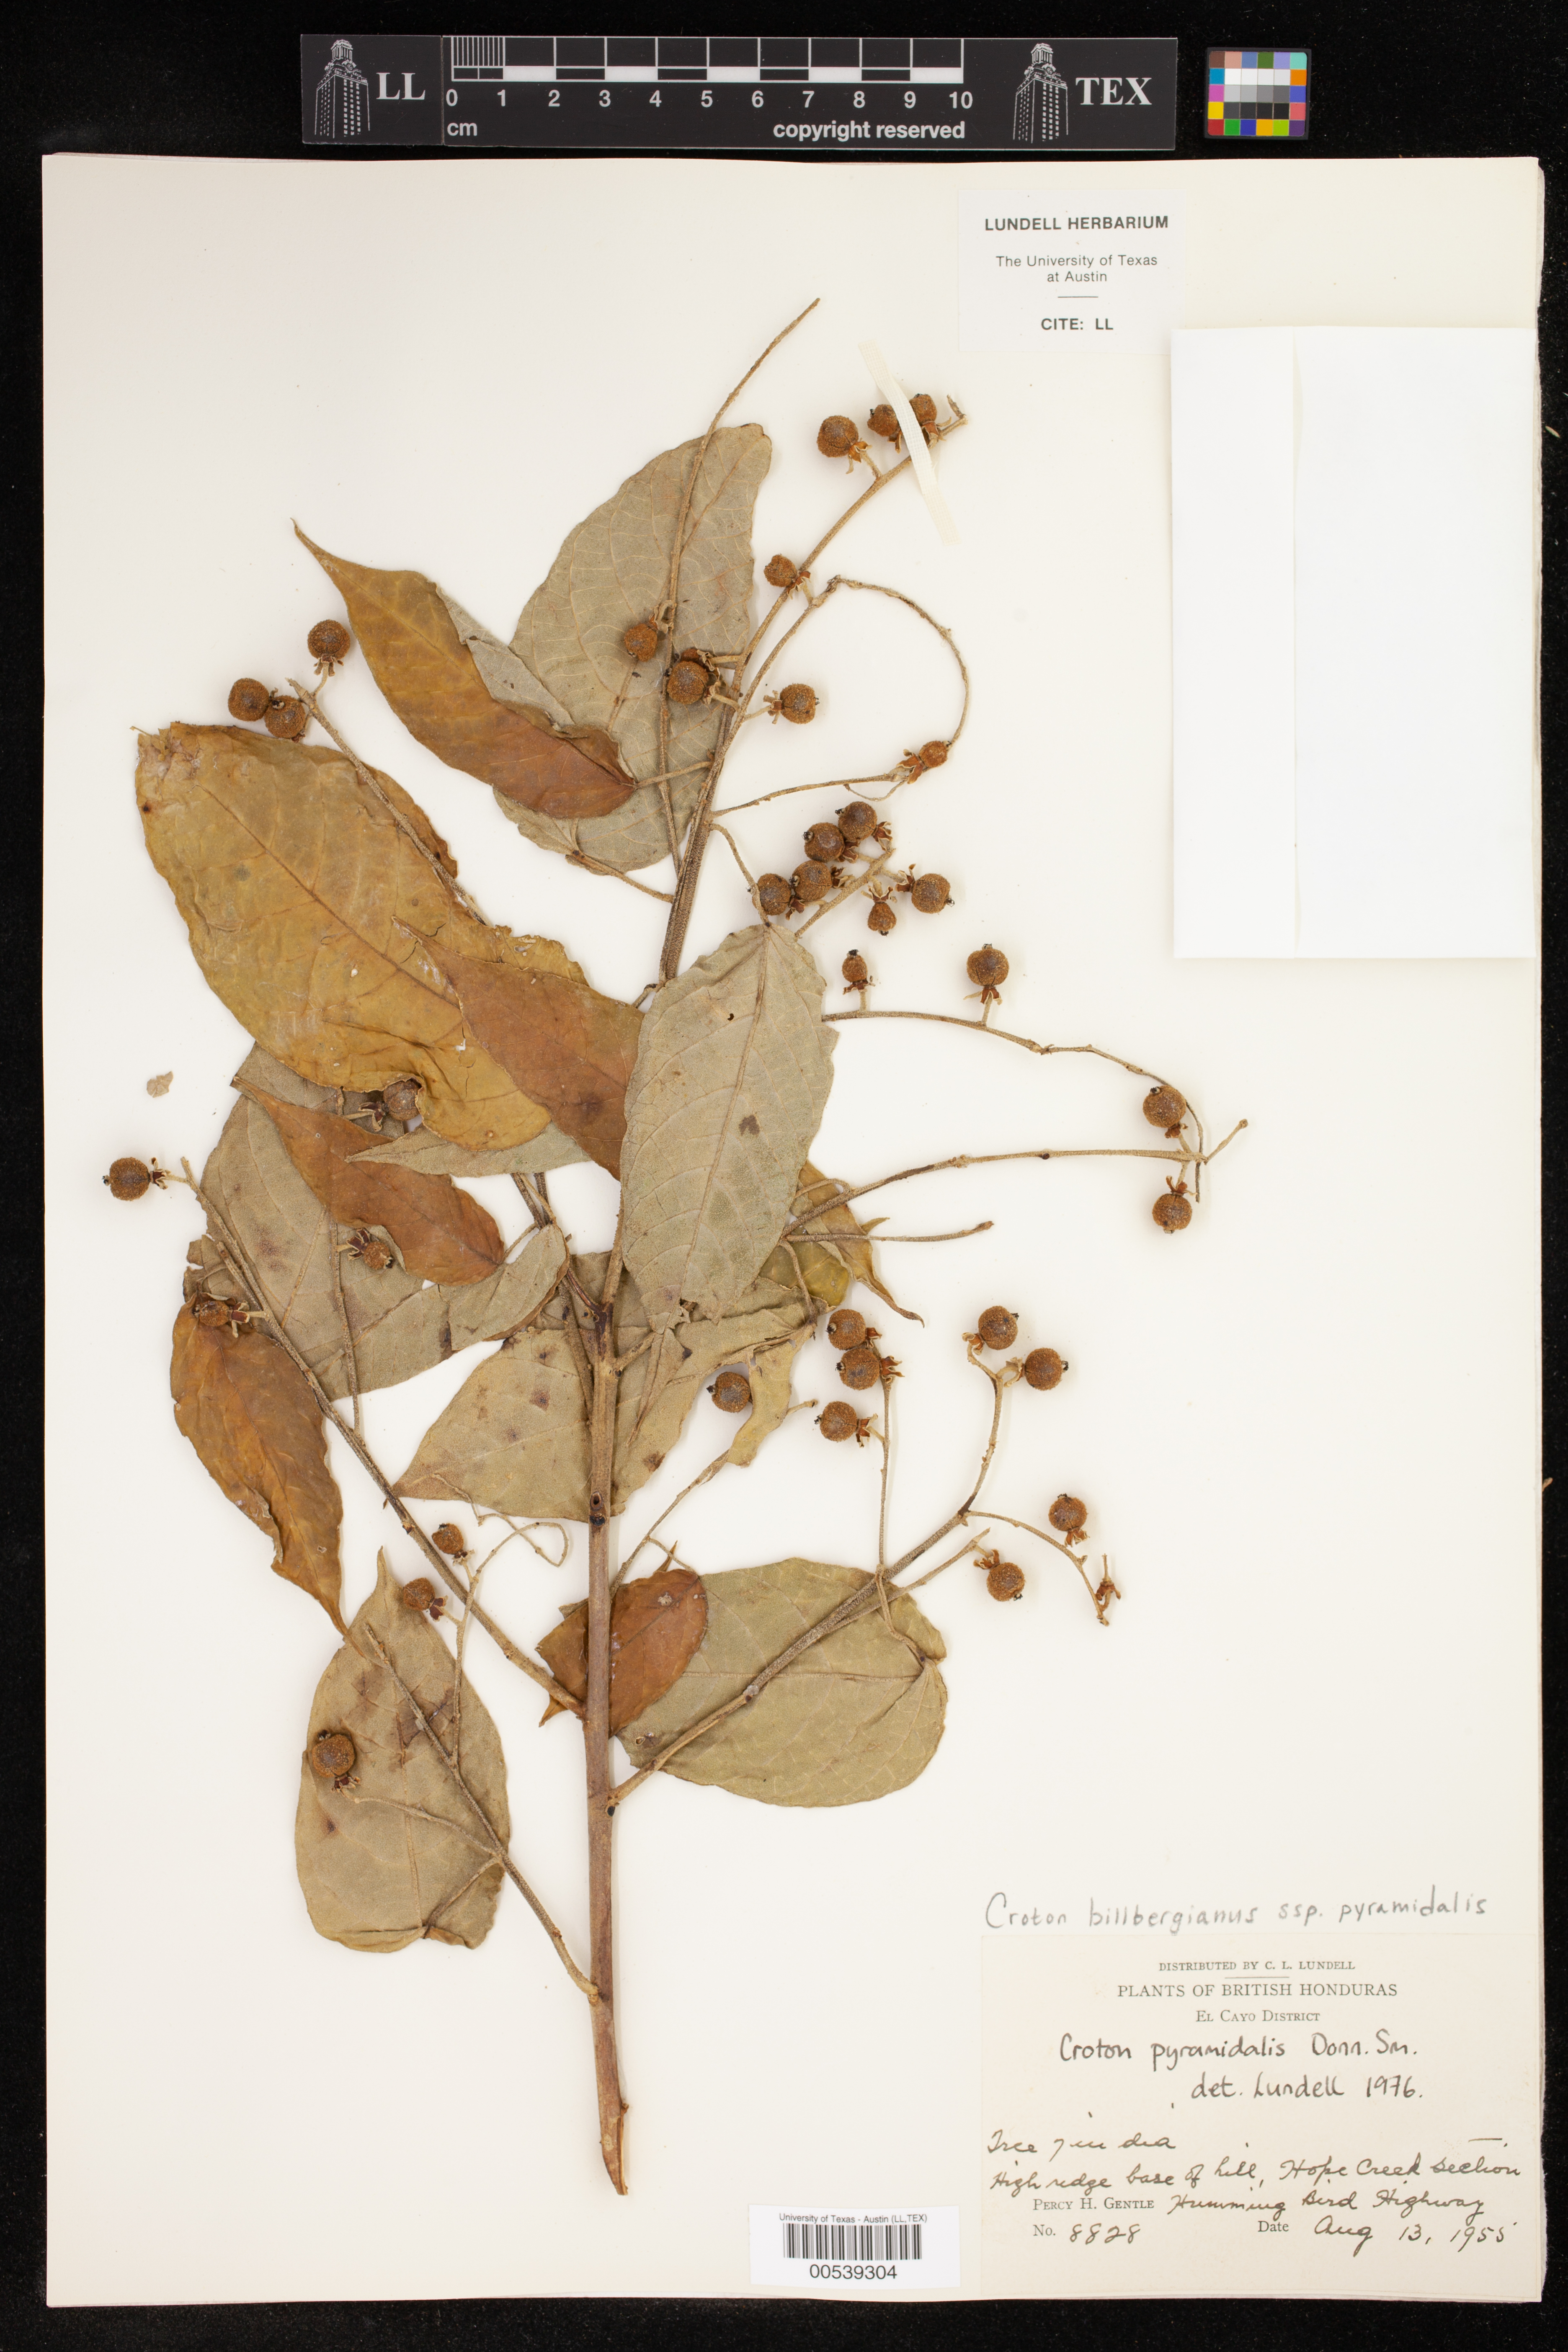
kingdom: Plantae
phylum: Tracheophyta
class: Magnoliopsida
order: Malpighiales
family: Euphorbiaceae
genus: Croton
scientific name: Croton billbergianus
